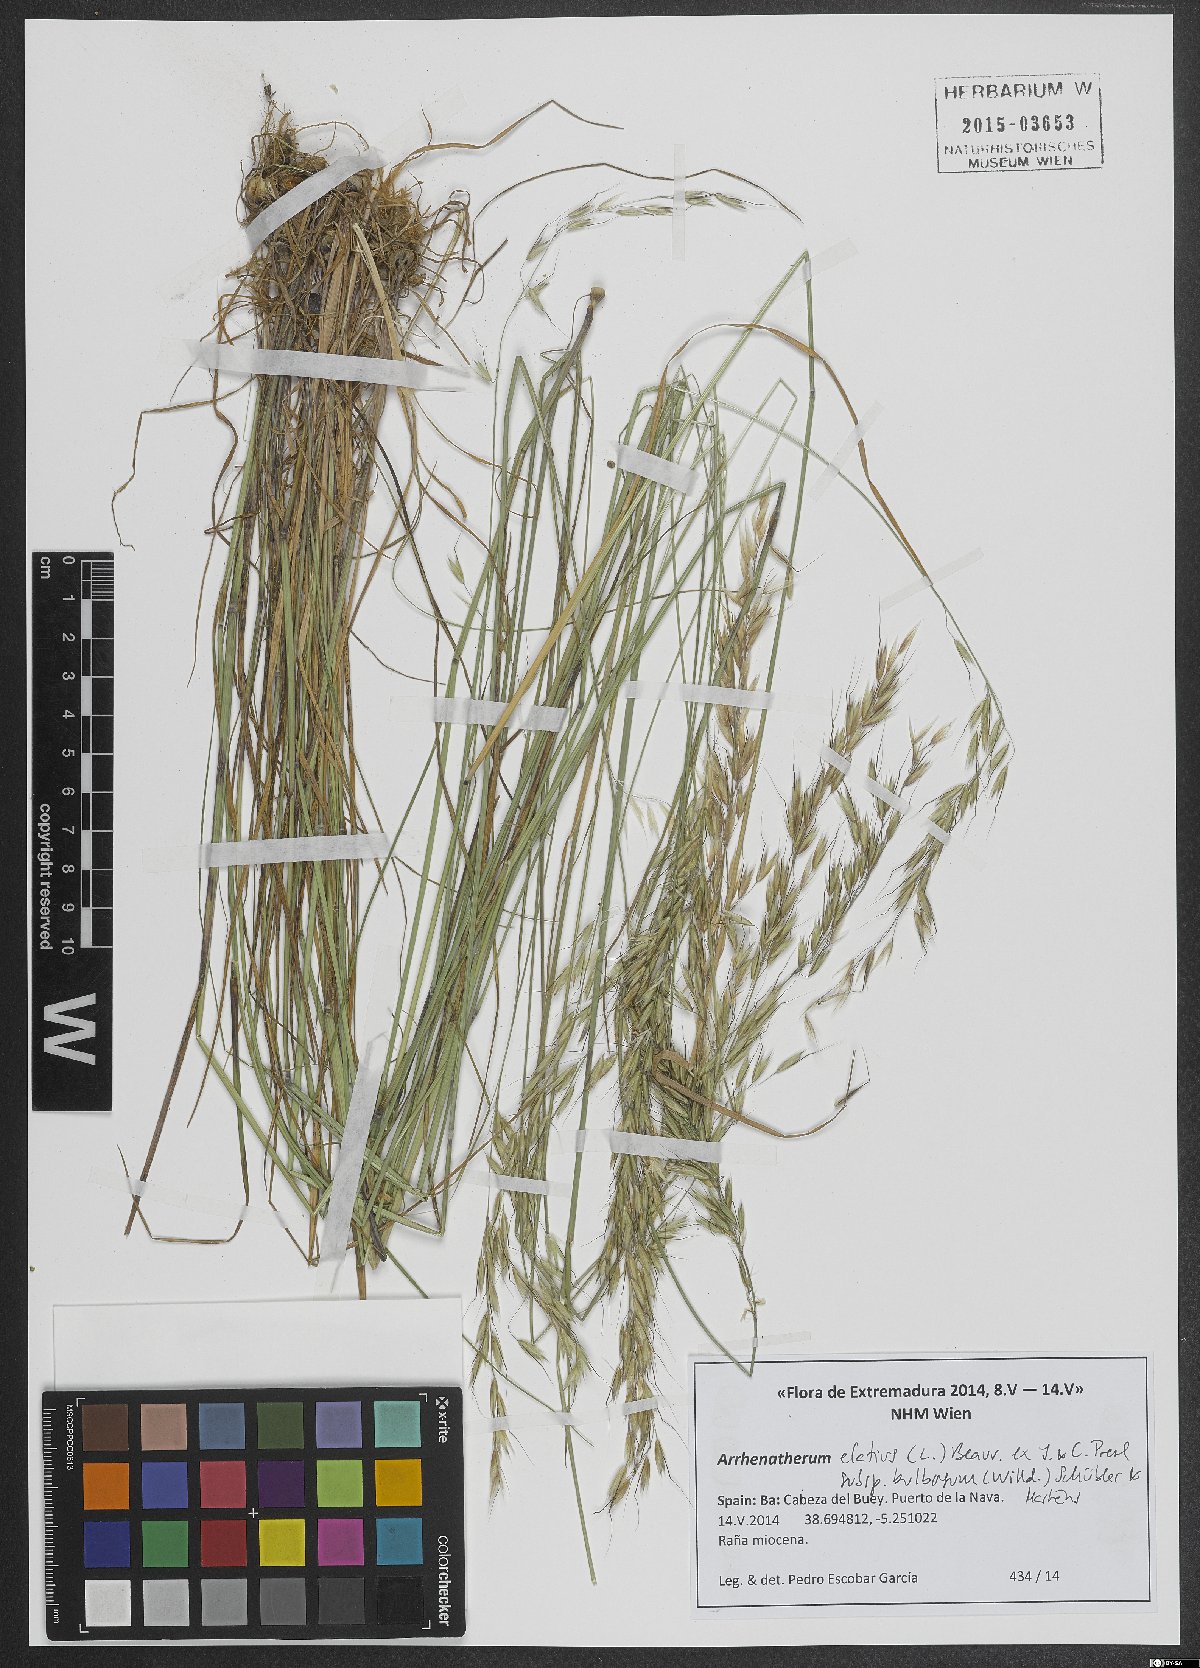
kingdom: Plantae
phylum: Tracheophyta
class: Liliopsida
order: Poales
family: Poaceae
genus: Arrhenatherum
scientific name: Arrhenatherum elatius
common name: Tall oatgrass
